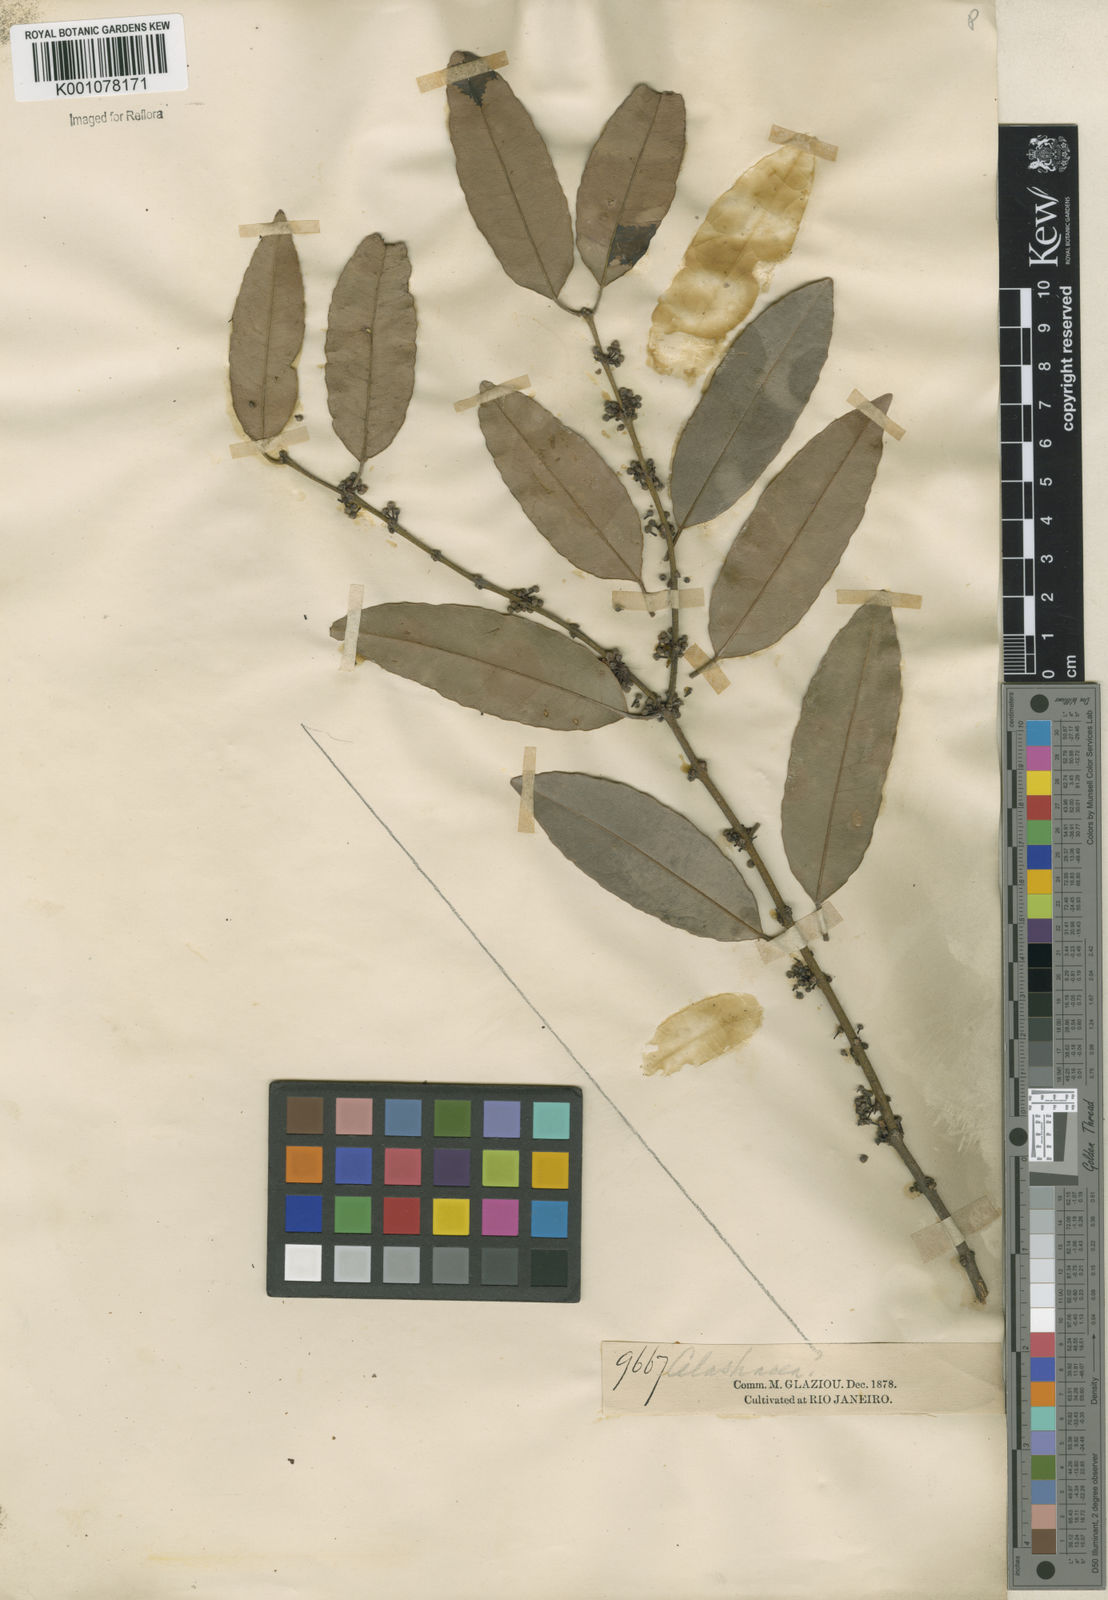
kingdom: Plantae
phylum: Tracheophyta
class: Magnoliopsida
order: Celastrales
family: Celastraceae
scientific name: Celastraceae
